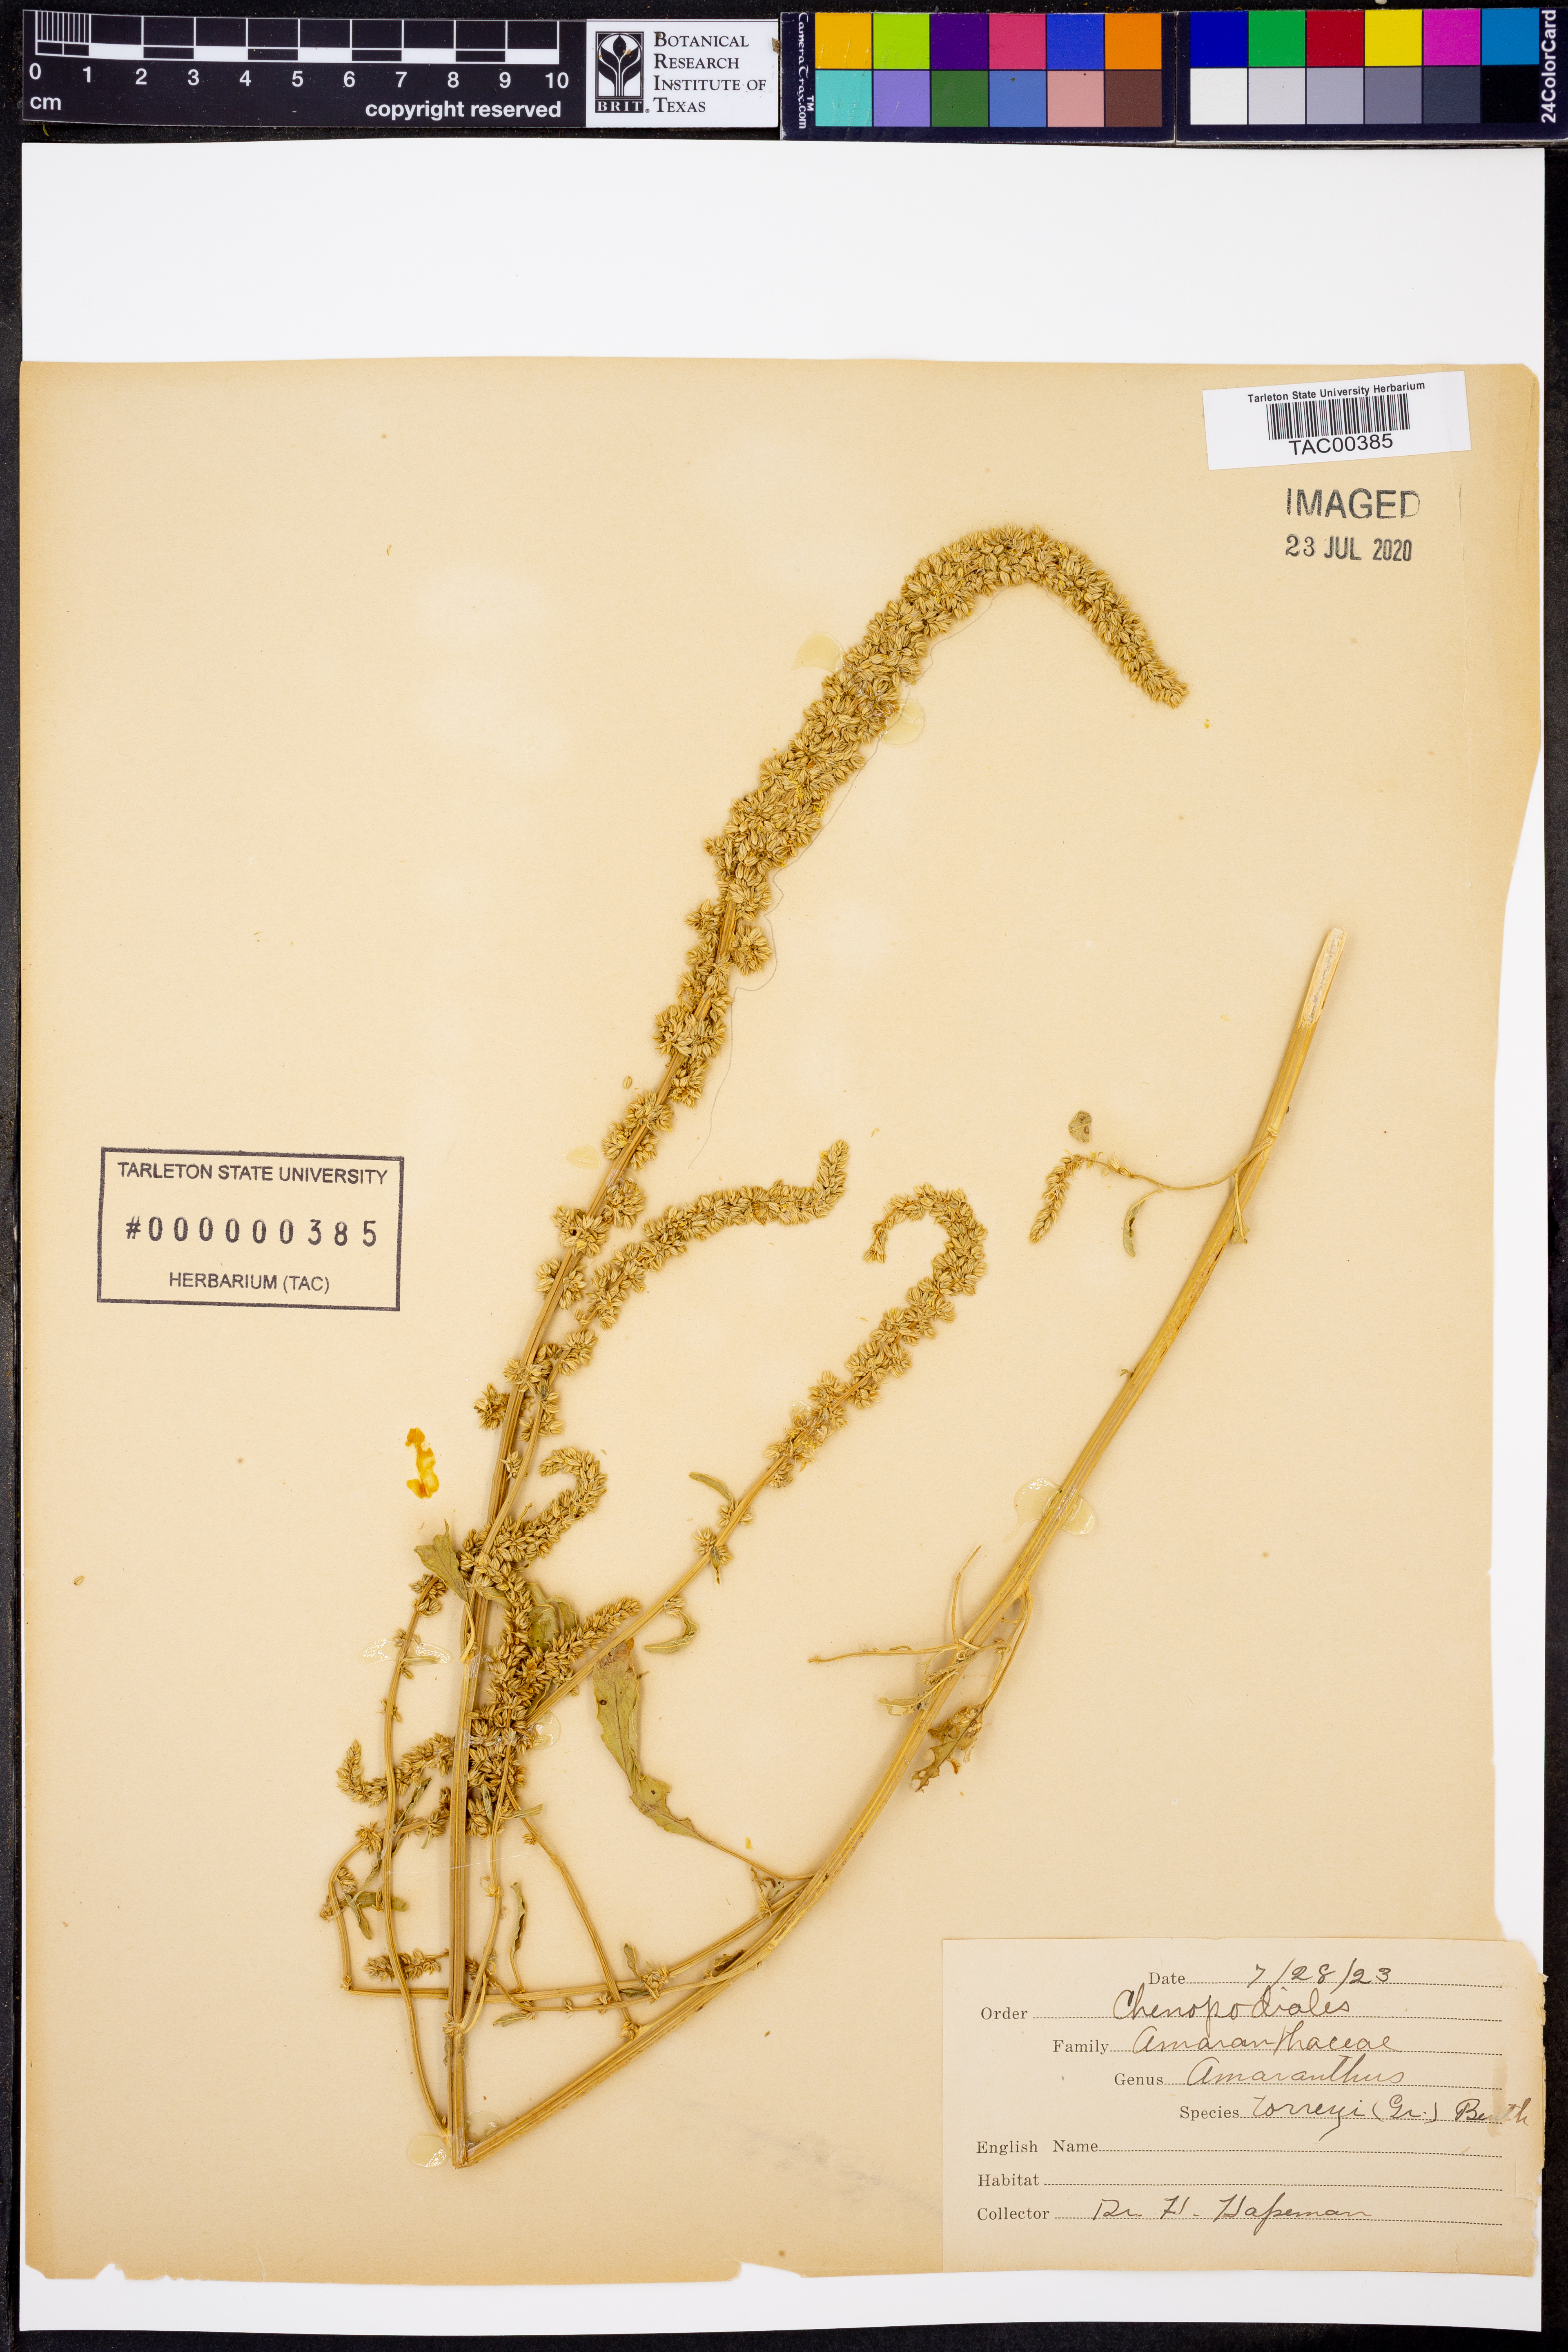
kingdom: Plantae
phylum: Tracheophyta
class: Magnoliopsida
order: Caryophyllales
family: Amaranthaceae
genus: Amaranthus
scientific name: Amaranthus torreyi
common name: Bigelow's amaranth
